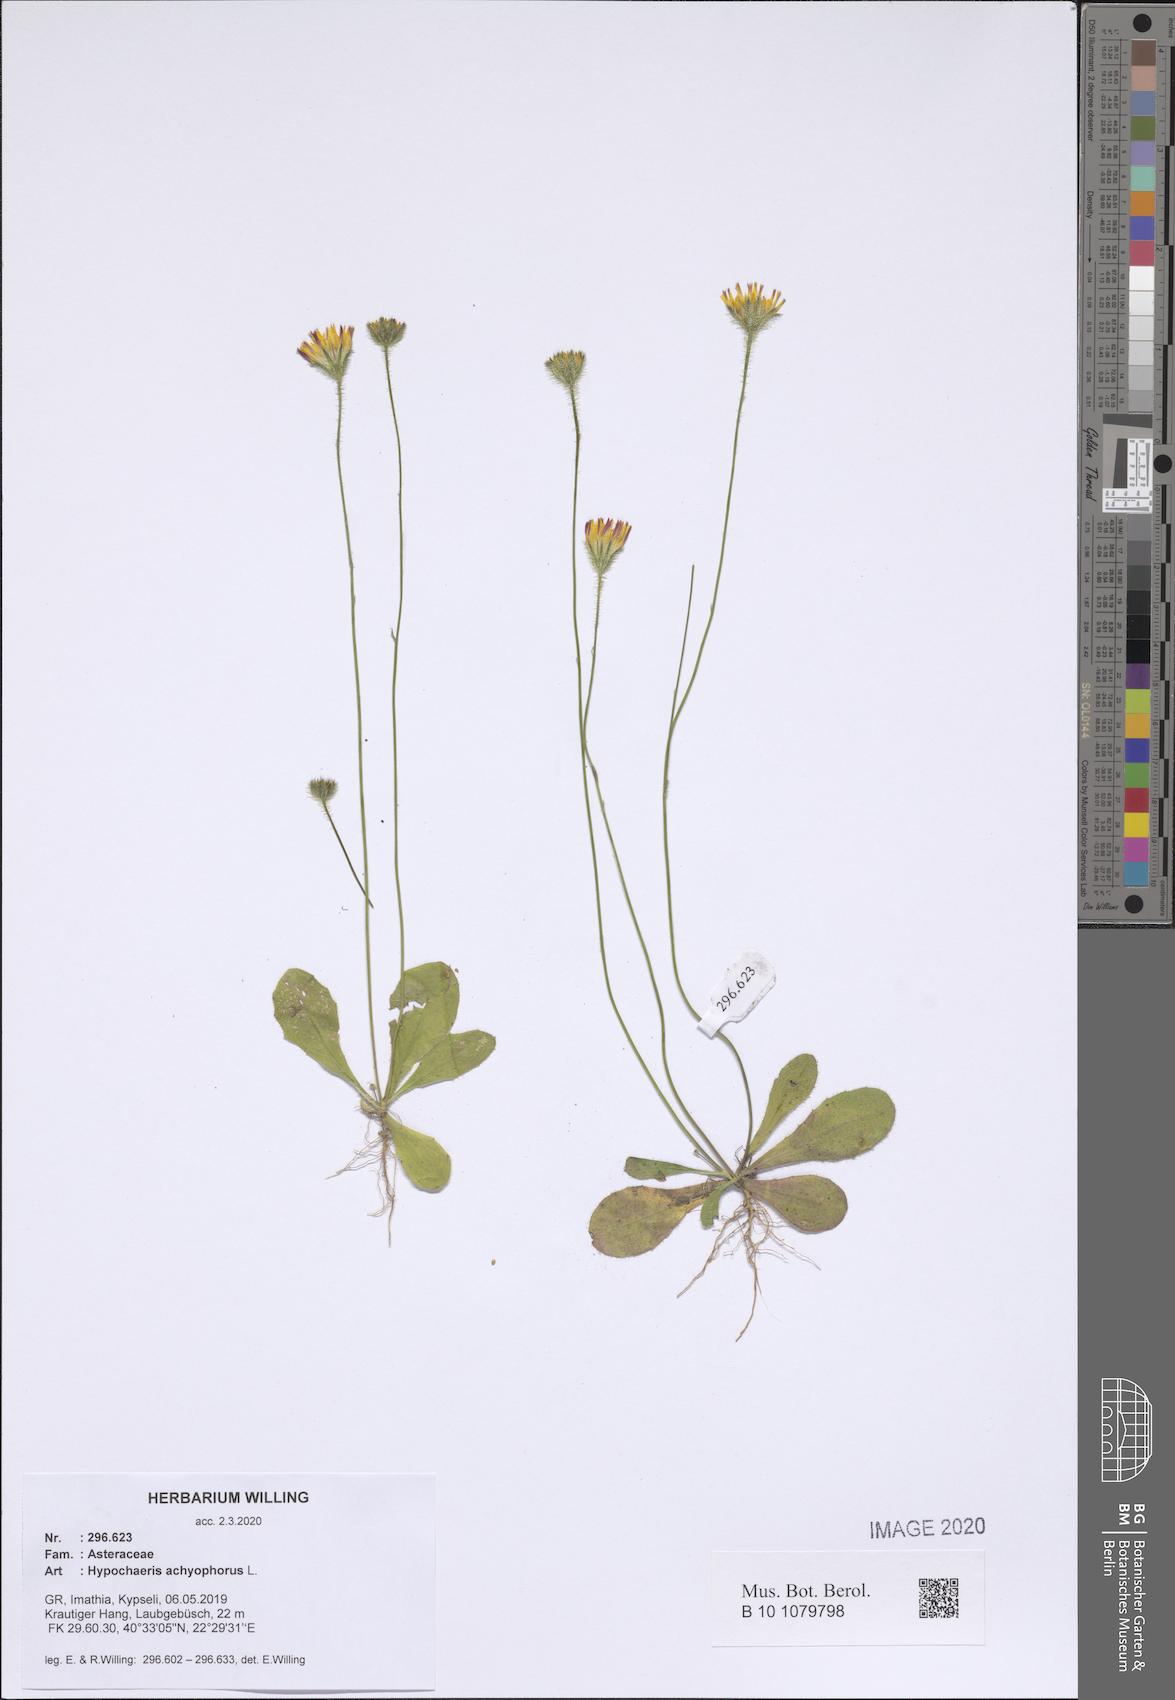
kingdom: Plantae
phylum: Tracheophyta
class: Magnoliopsida
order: Asterales
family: Asteraceae
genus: Achyrophorus
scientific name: Achyrophorus valdesii
